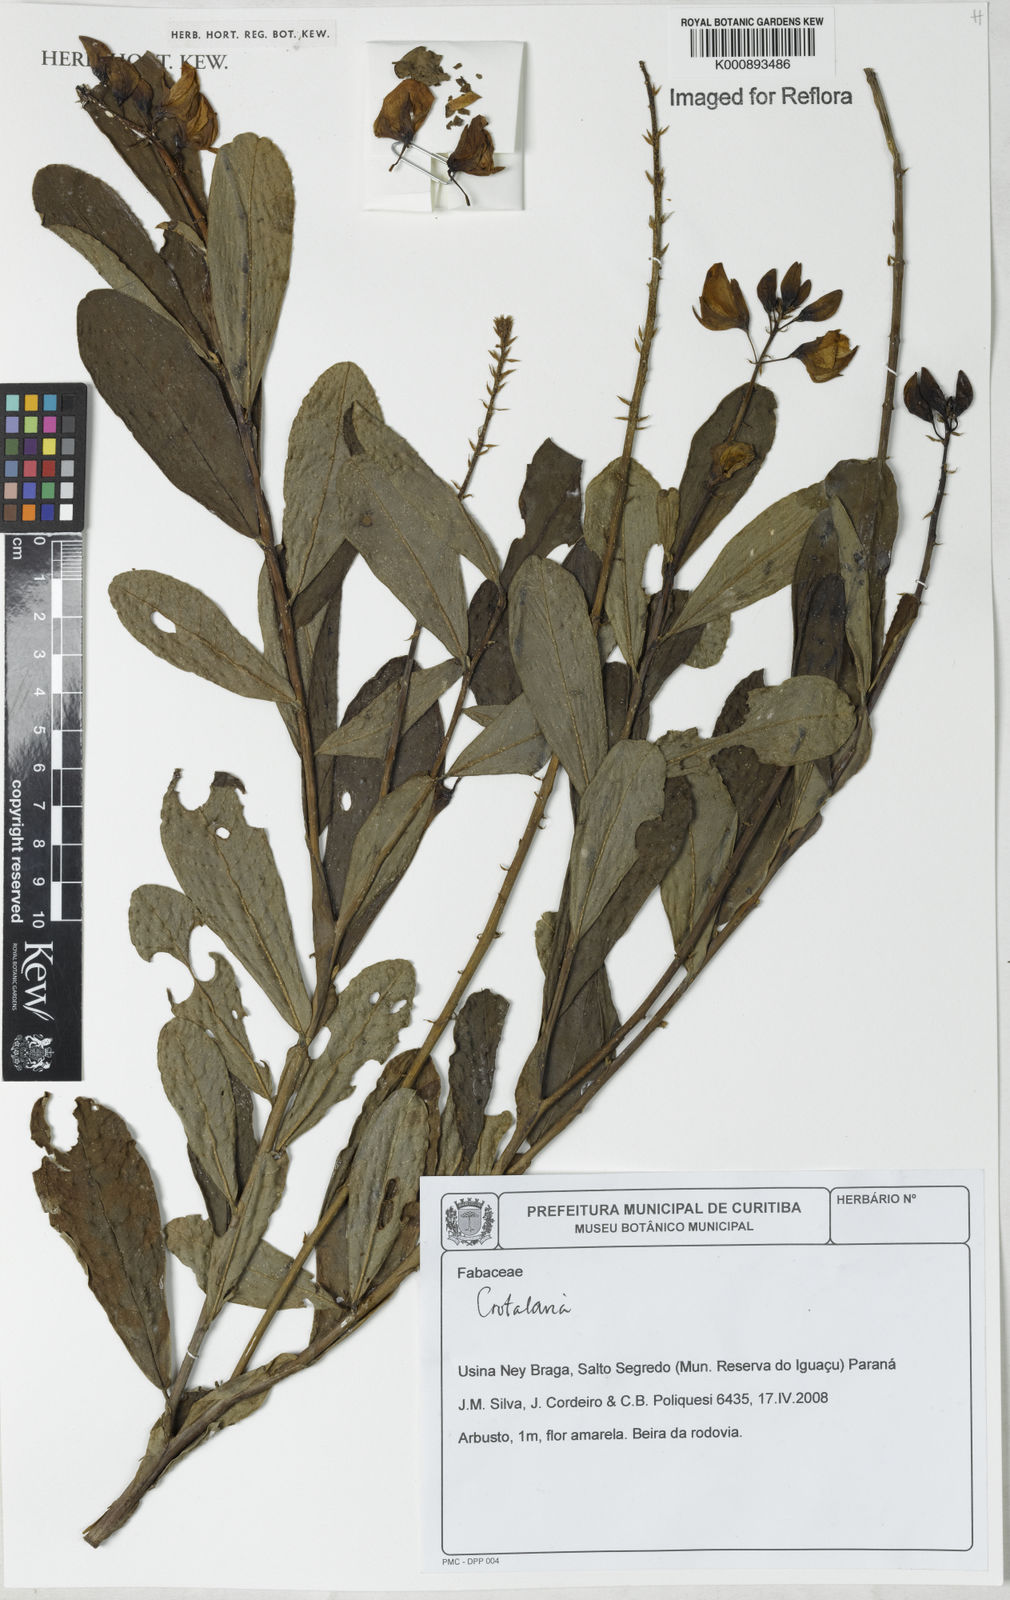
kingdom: Plantae
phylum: Tracheophyta
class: Magnoliopsida
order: Fabales
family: Fabaceae
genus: Crotalaria
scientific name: Crotalaria vespertilio
